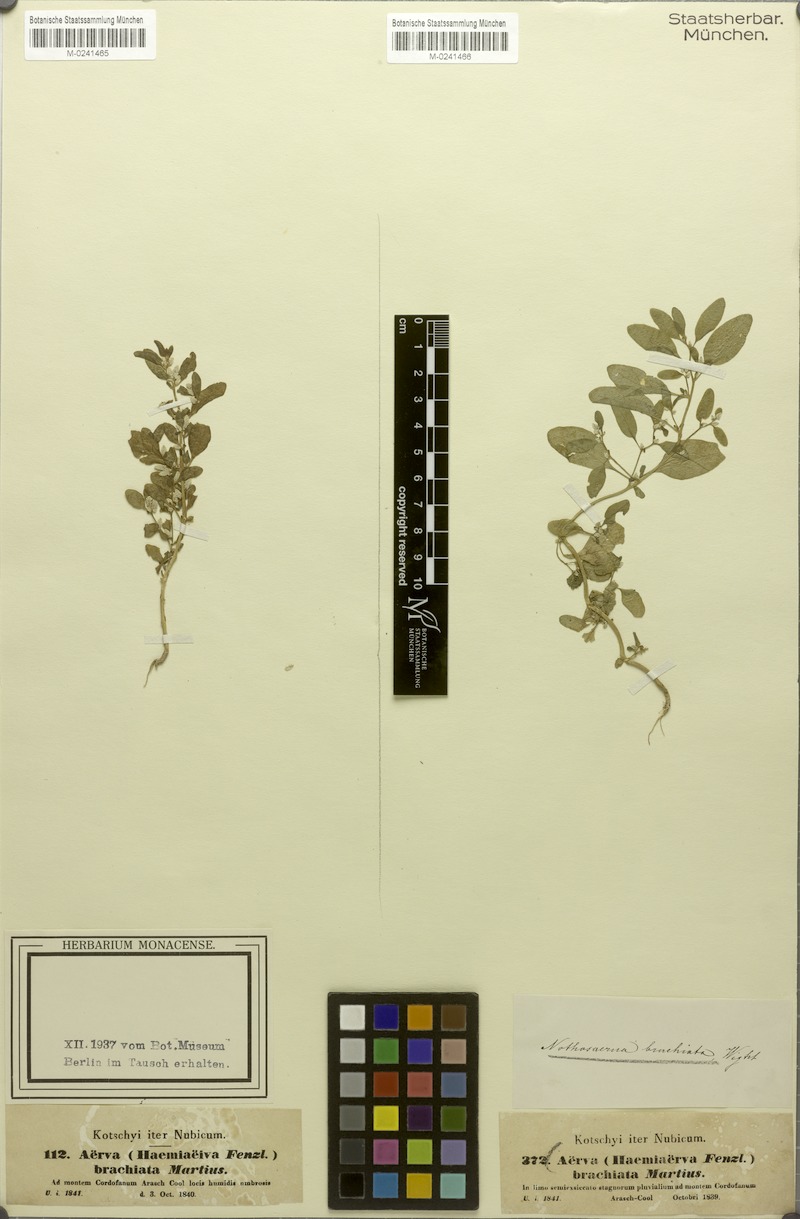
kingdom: Plantae
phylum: Tracheophyta
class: Magnoliopsida
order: Caryophyllales
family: Amaranthaceae
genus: Nothosaerva
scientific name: Nothosaerva brachiata
